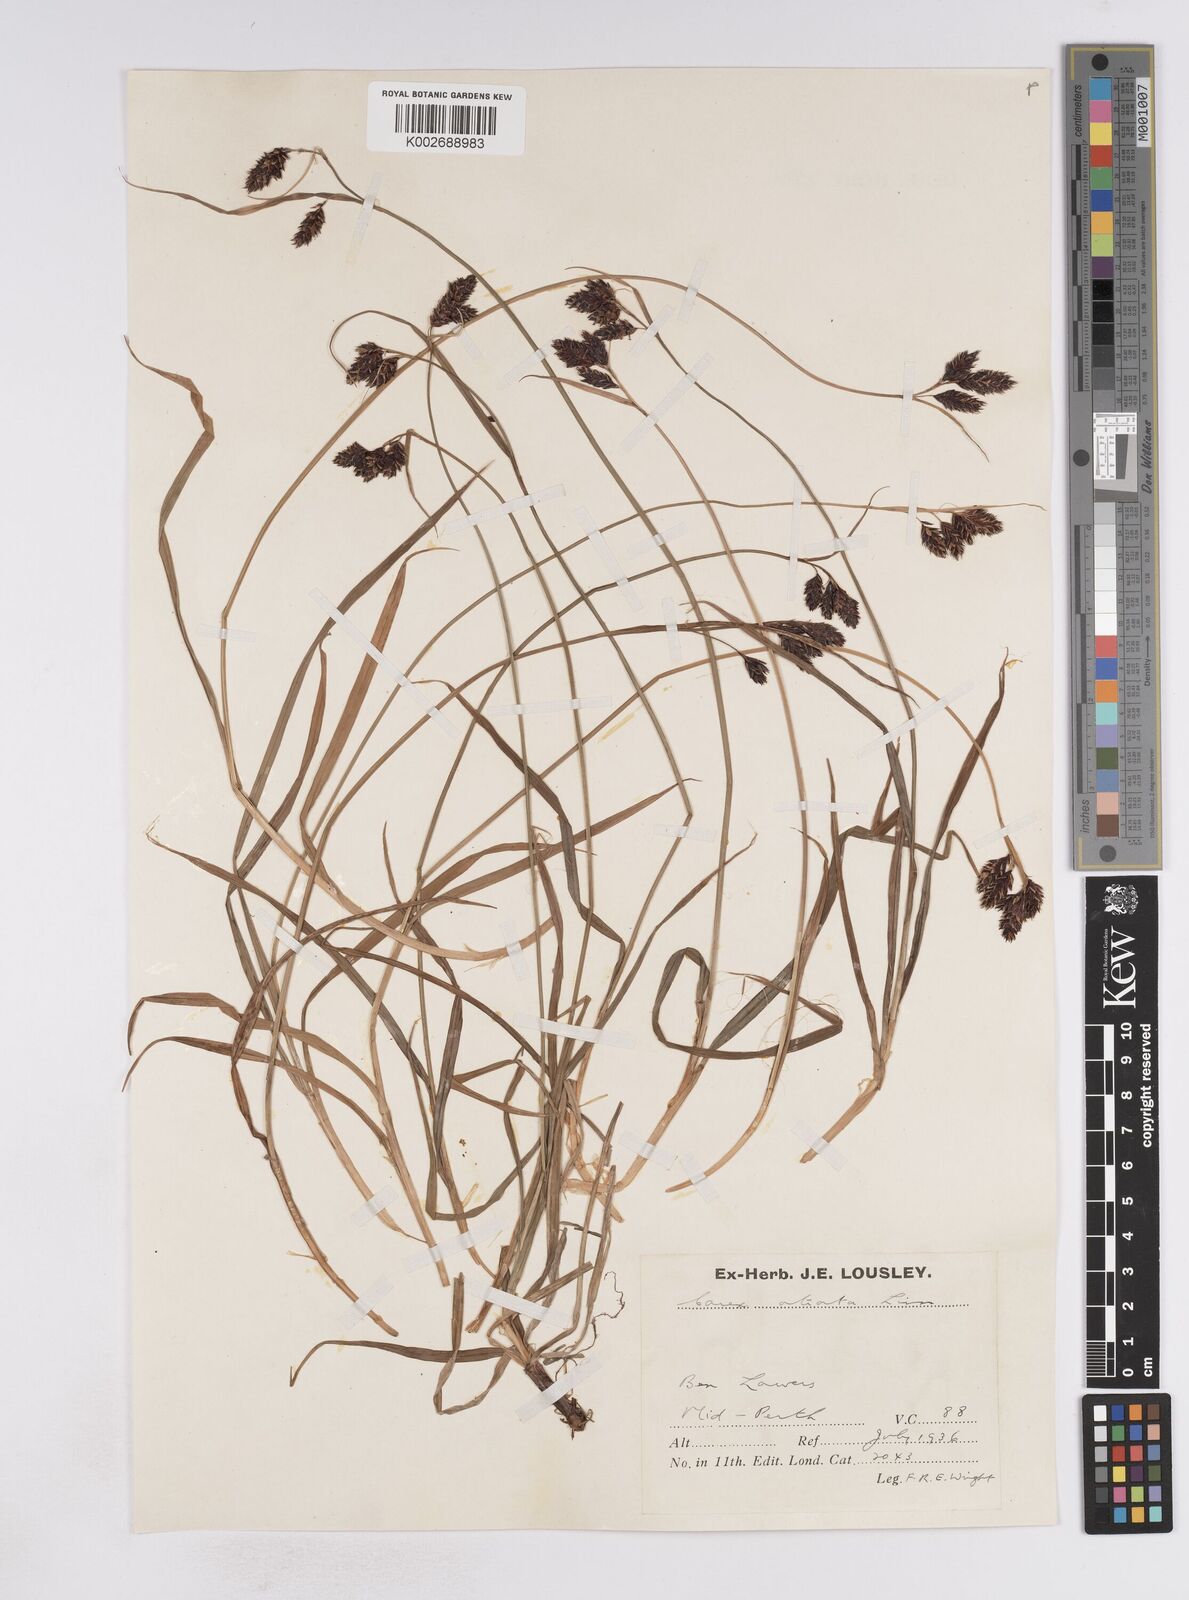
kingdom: Plantae
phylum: Tracheophyta
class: Liliopsida
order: Poales
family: Cyperaceae
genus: Carex
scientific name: Carex atrata
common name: Black alpine sedge
